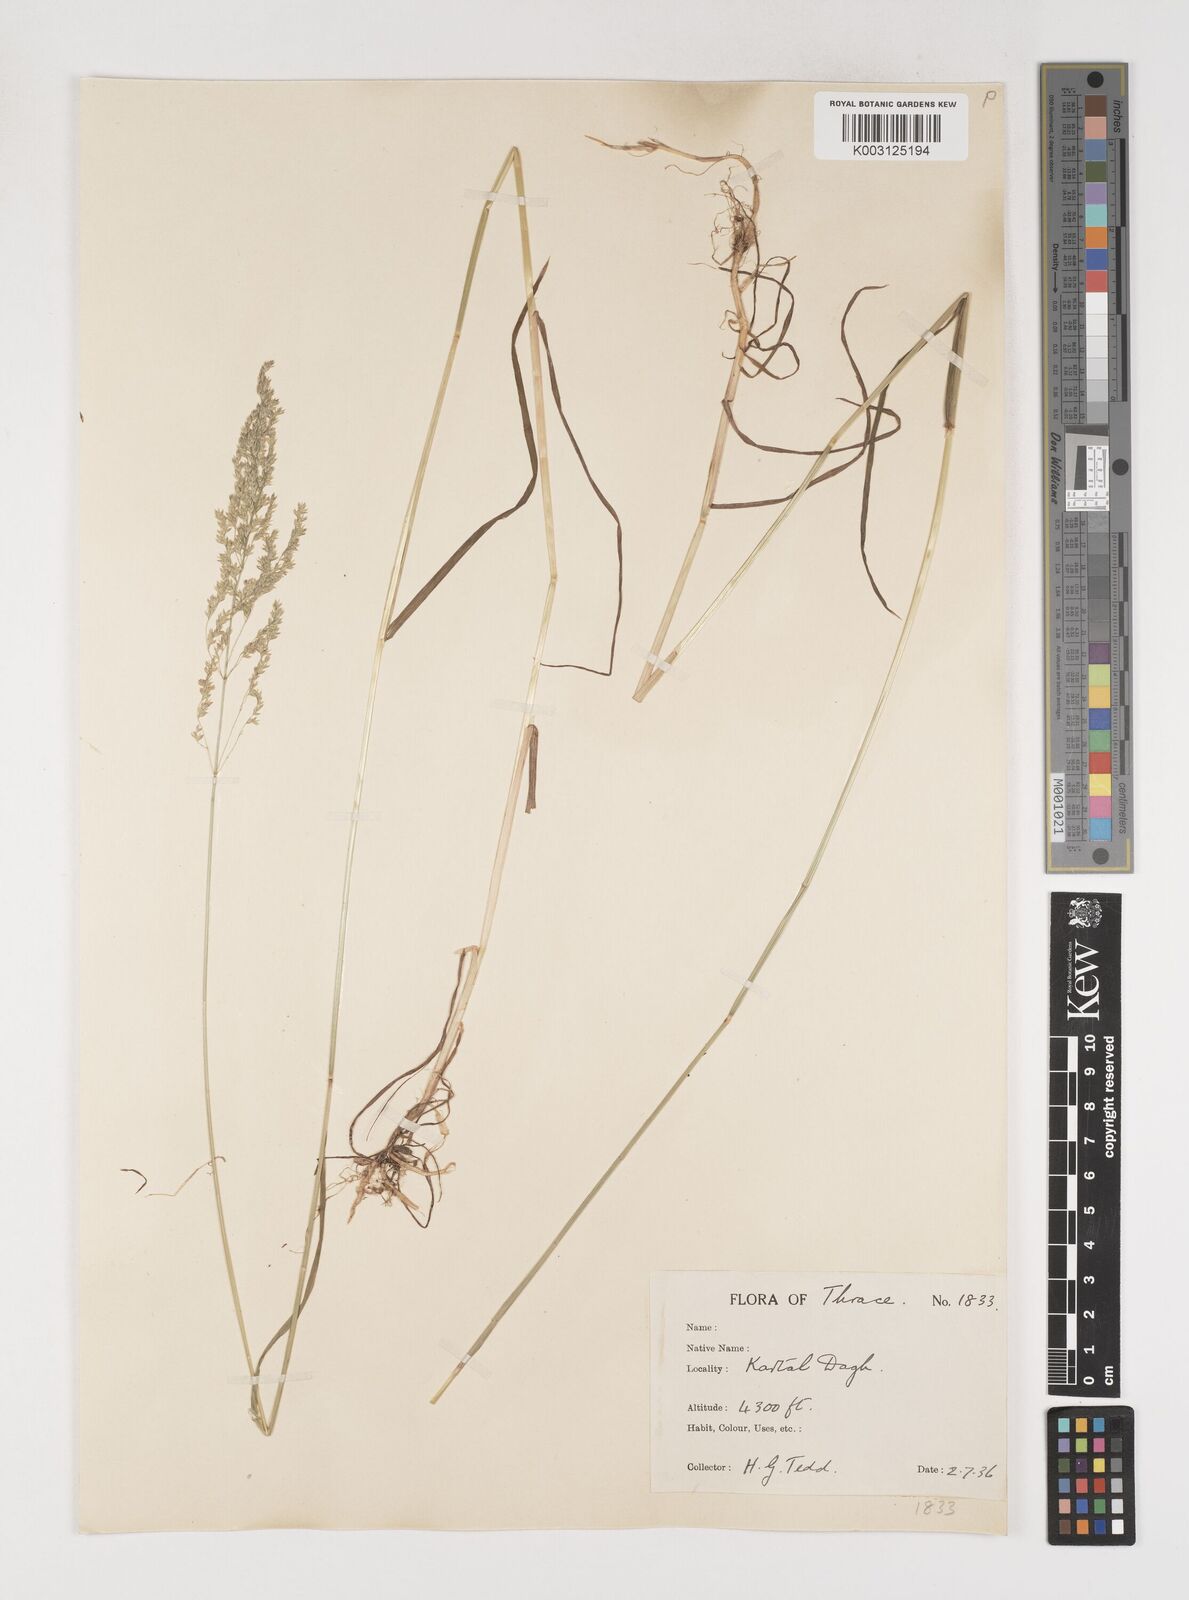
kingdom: Plantae
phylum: Tracheophyta
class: Liliopsida
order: Poales
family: Poaceae
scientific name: Poaceae
